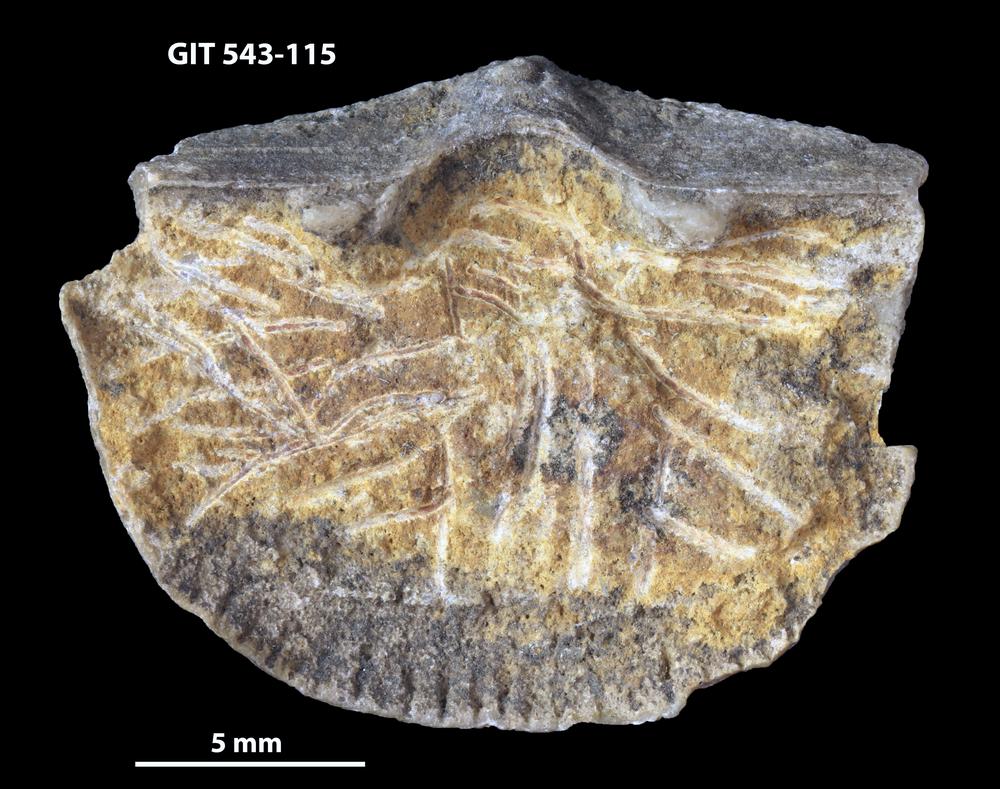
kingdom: Animalia
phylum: Brachiopoda
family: Gonambonitidae
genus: Estlandia
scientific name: Estlandia Orthisina marginata
